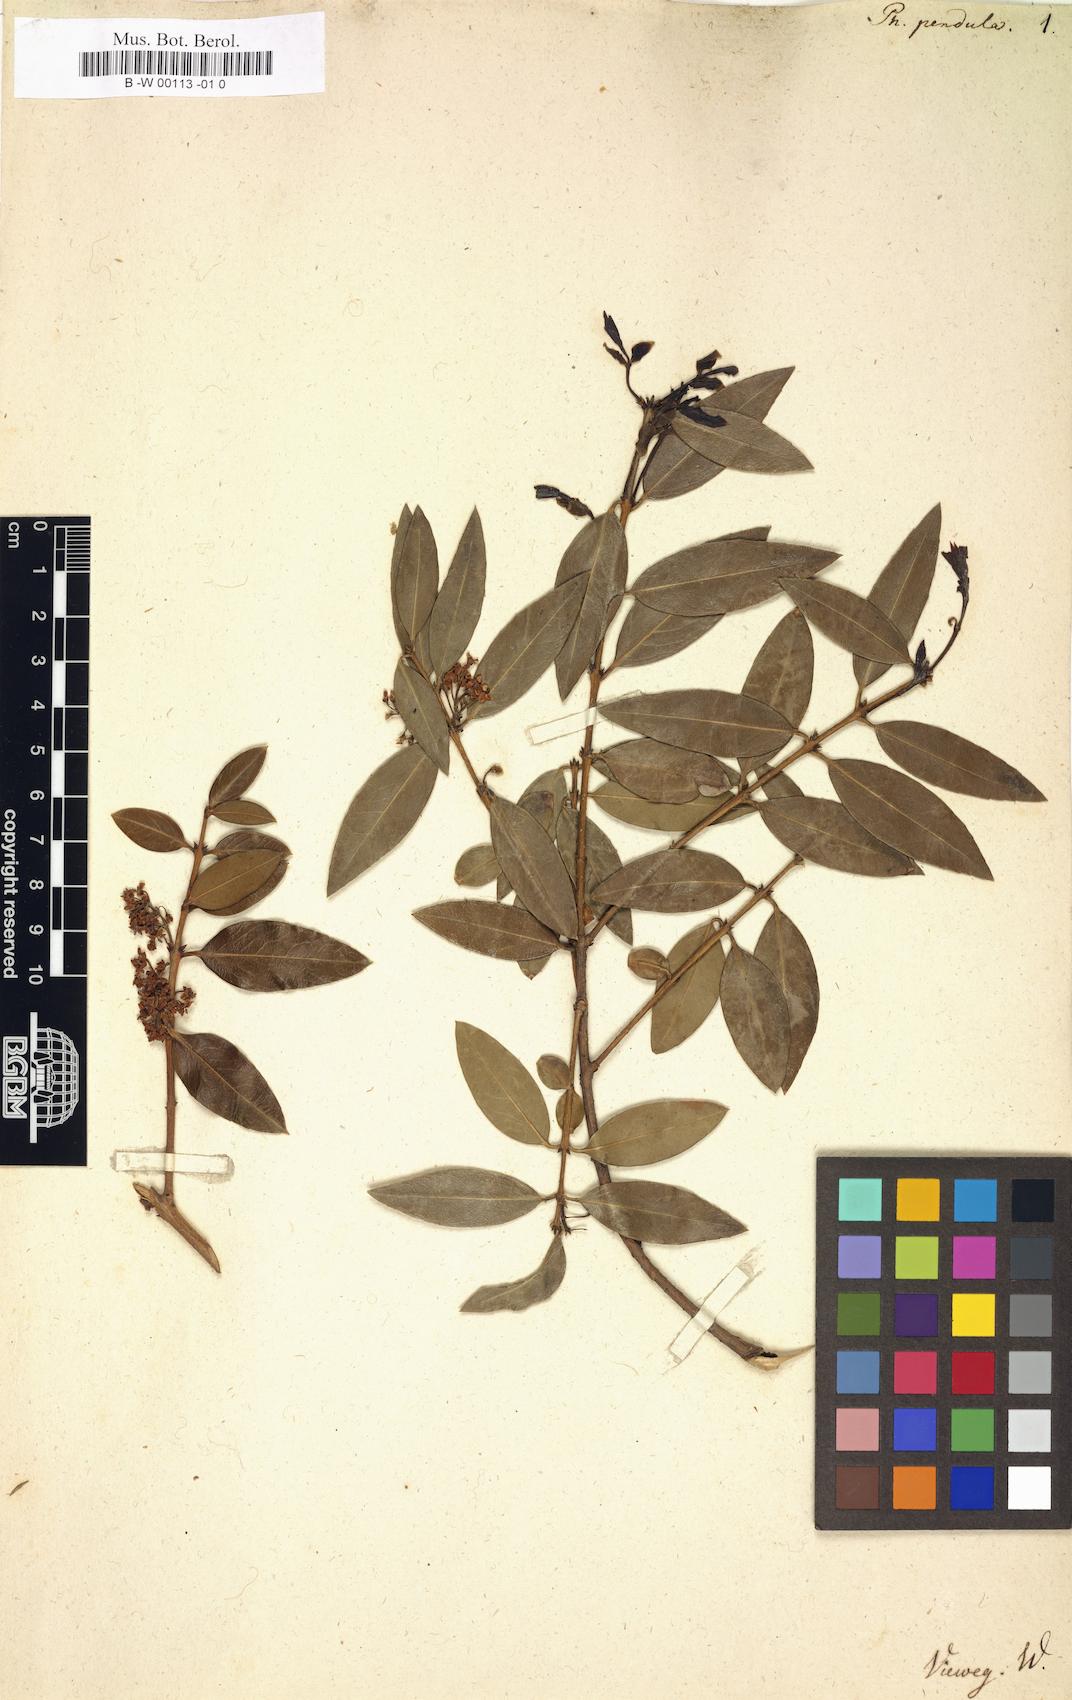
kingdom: Plantae
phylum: Tracheophyta
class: Magnoliopsida
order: Lamiales
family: Oleaceae
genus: Phillyrea
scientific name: Phillyrea latifolia
